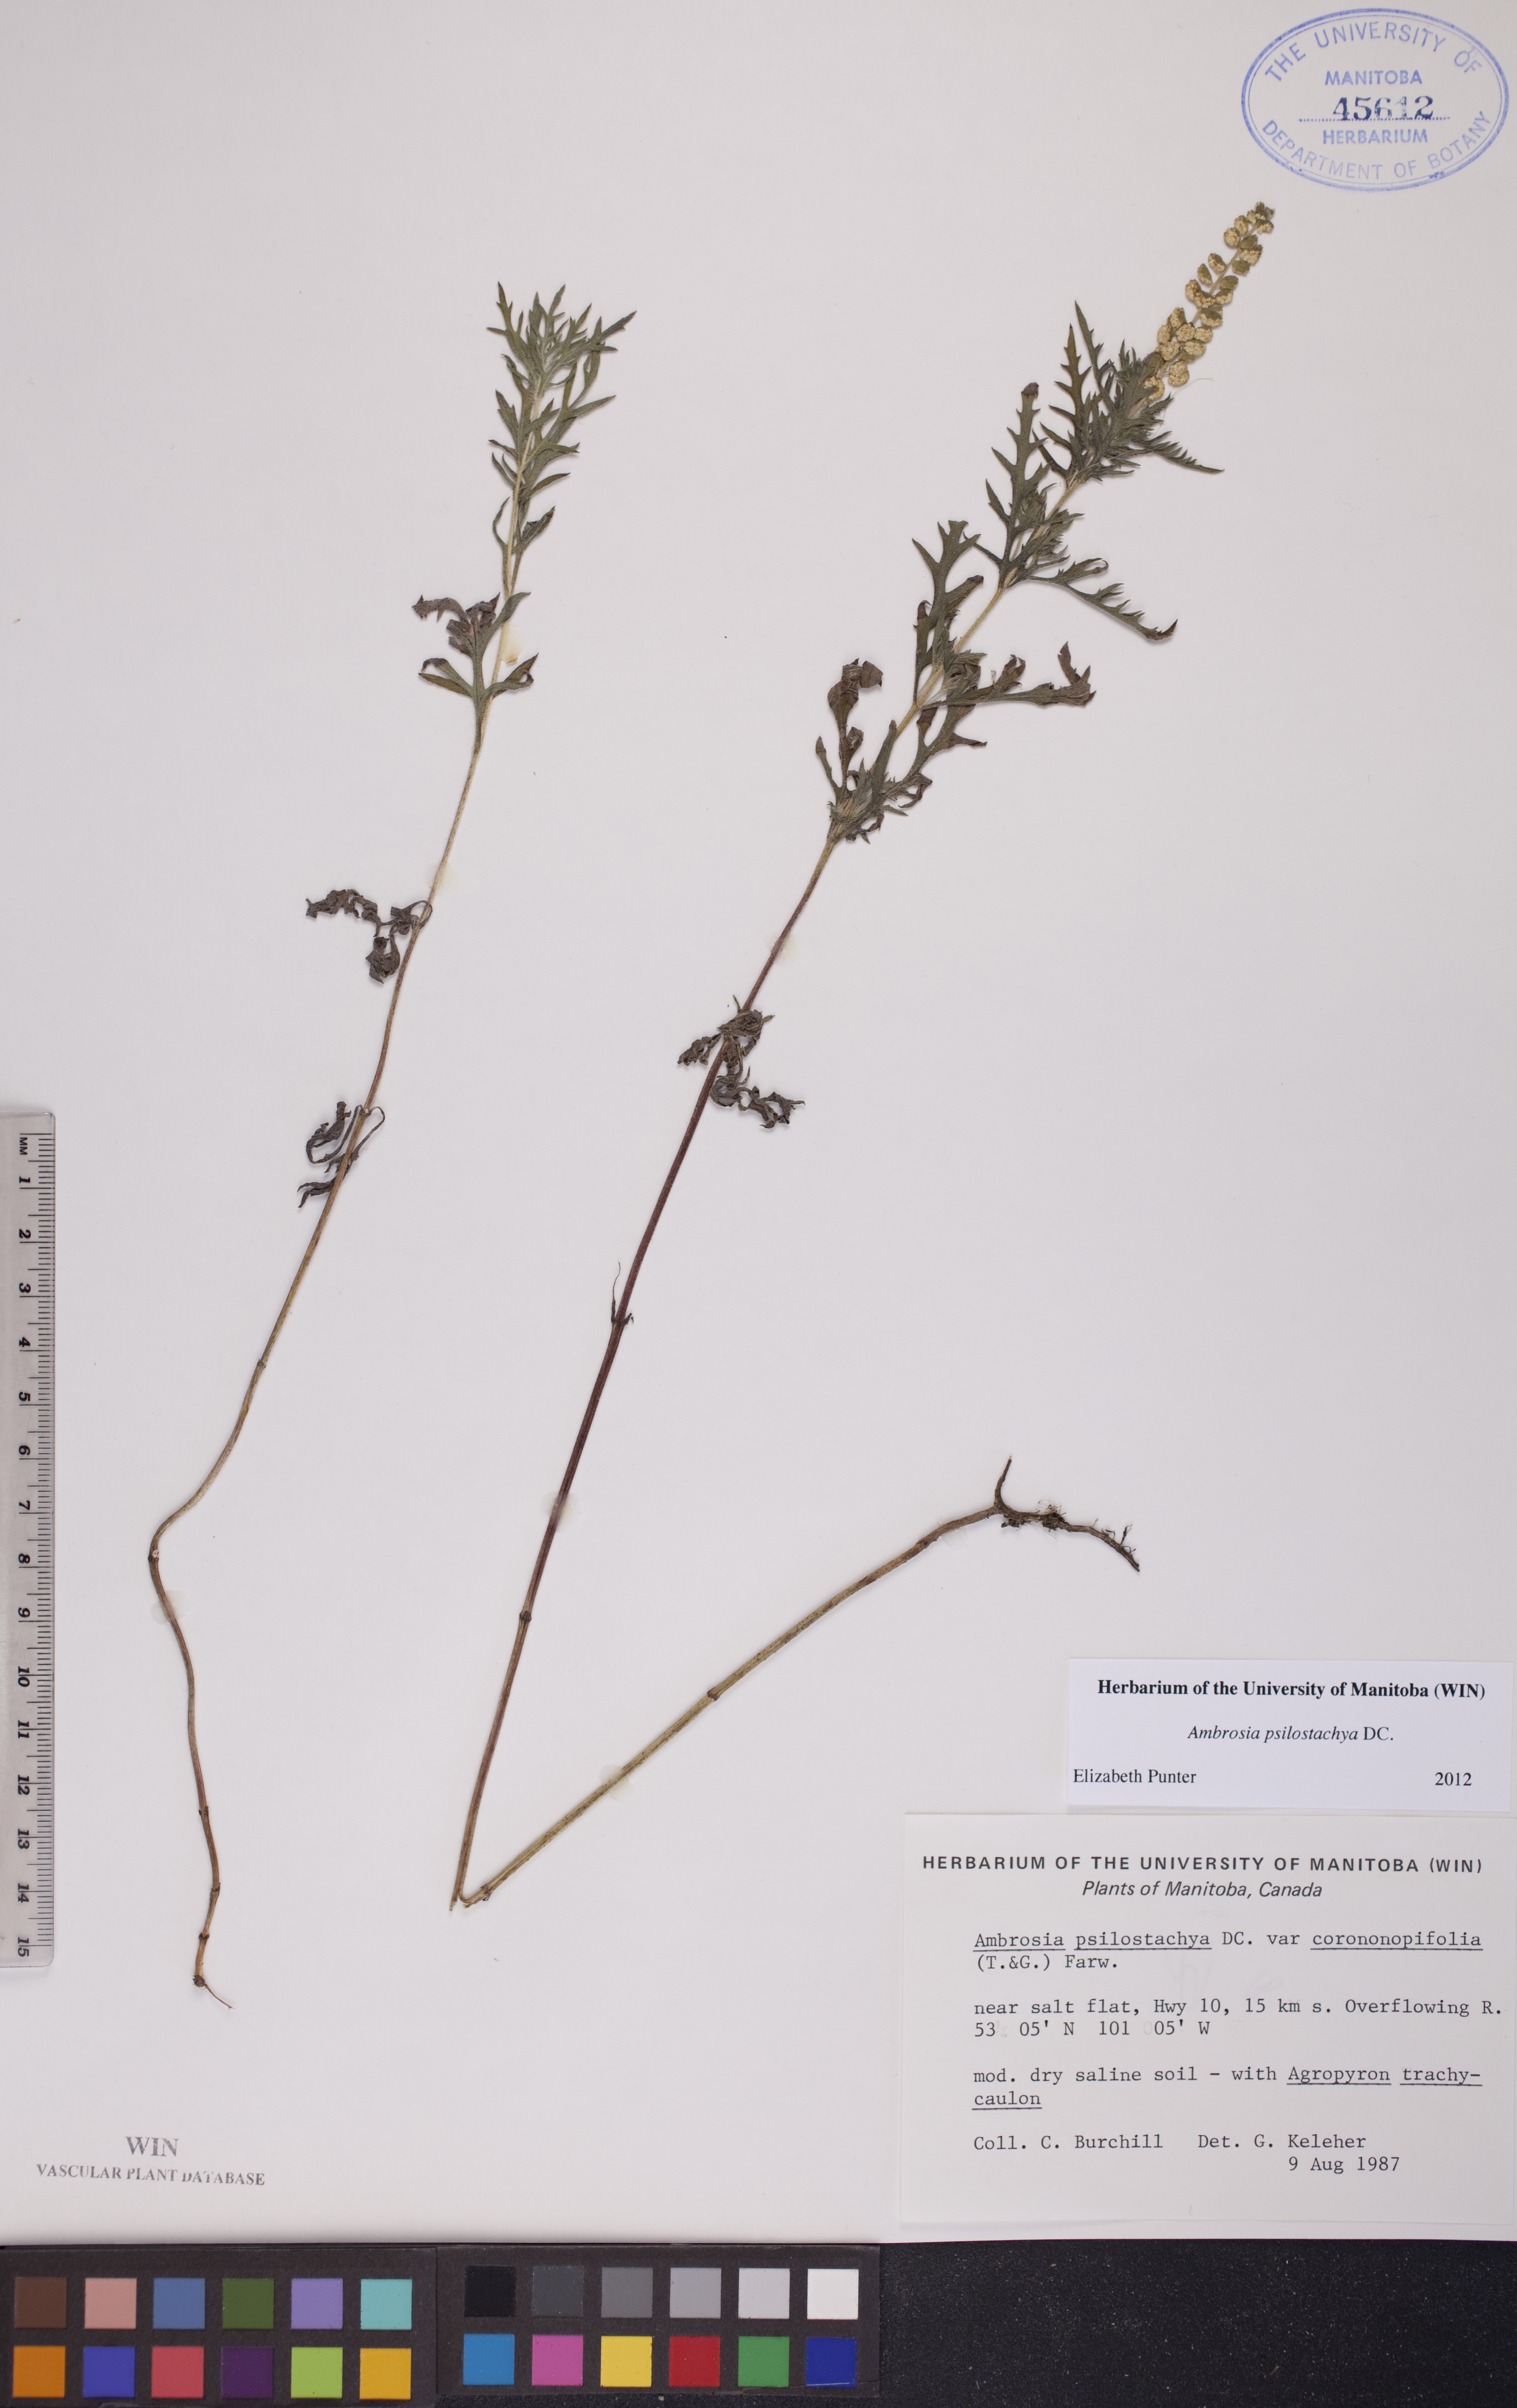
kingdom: Plantae
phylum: Tracheophyta
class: Magnoliopsida
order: Asterales
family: Asteraceae
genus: Ambrosia
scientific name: Ambrosia psilostachya
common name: Perennial ragweed
